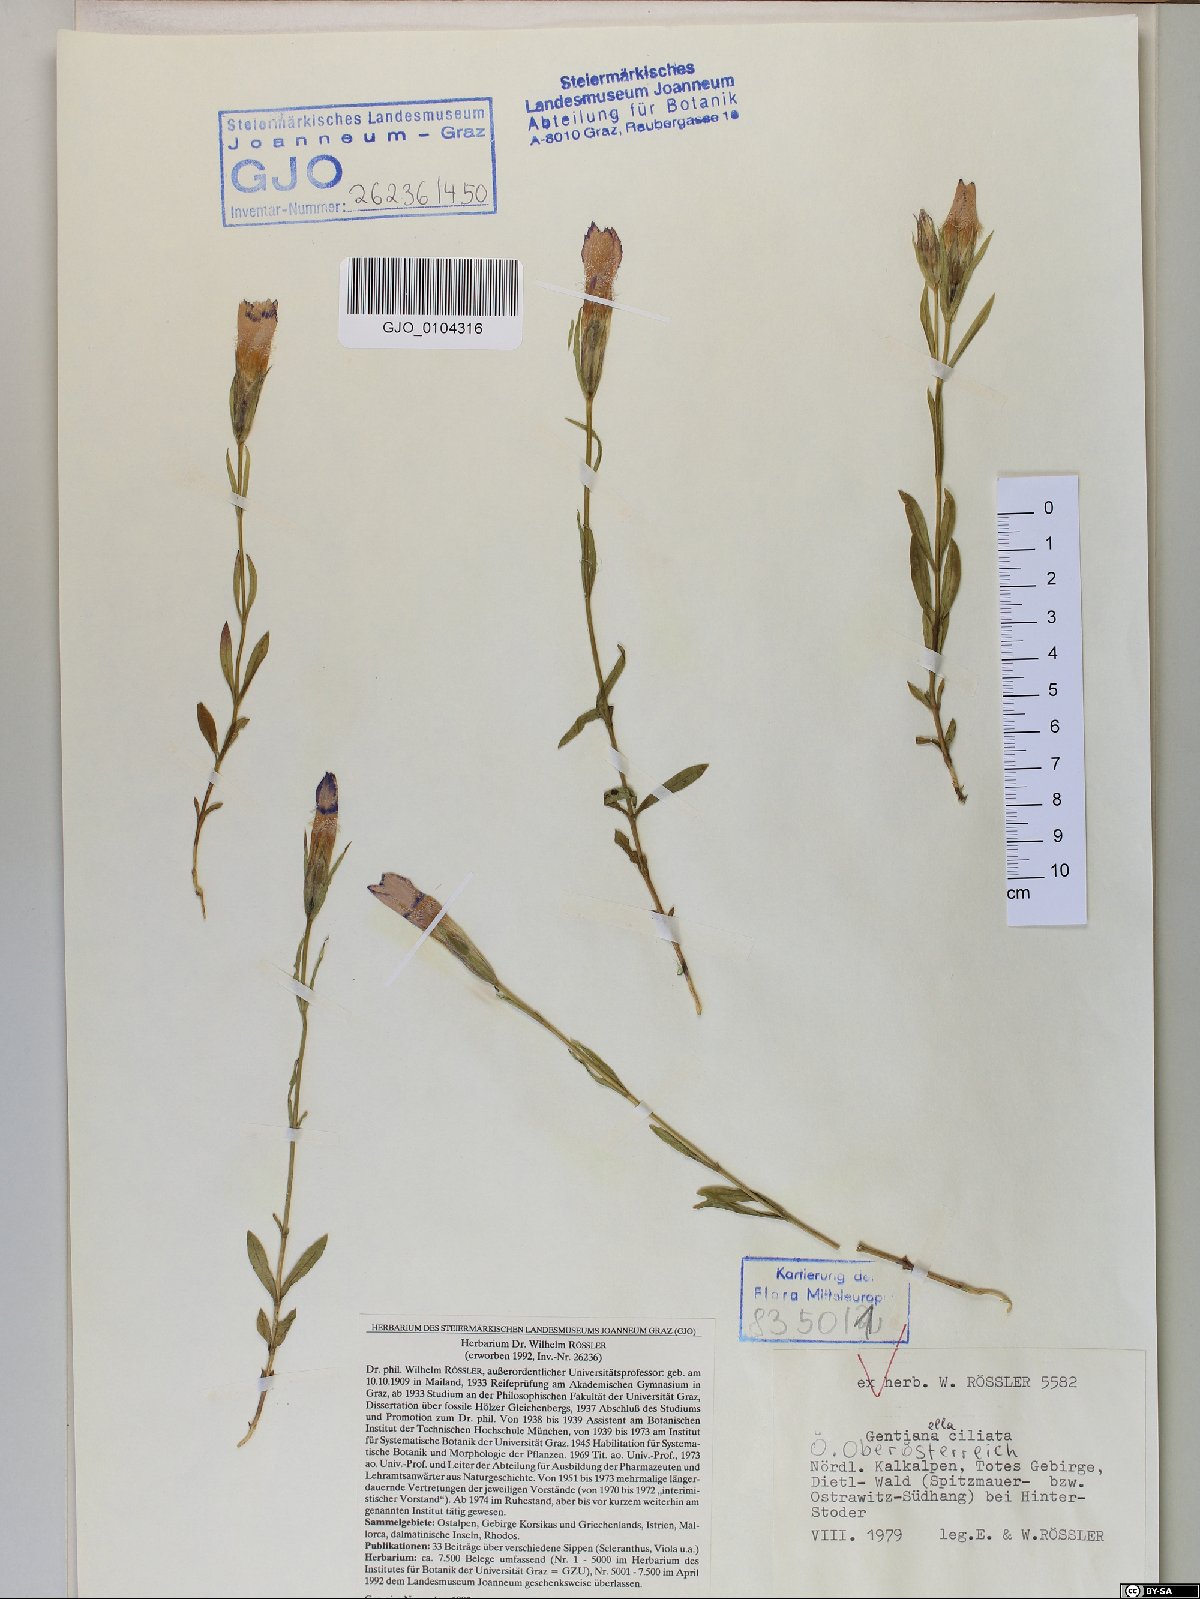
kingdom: Plantae
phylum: Tracheophyta
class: Magnoliopsida
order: Gentianales
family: Gentianaceae
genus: Gentianopsis
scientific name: Gentianopsis ciliata
